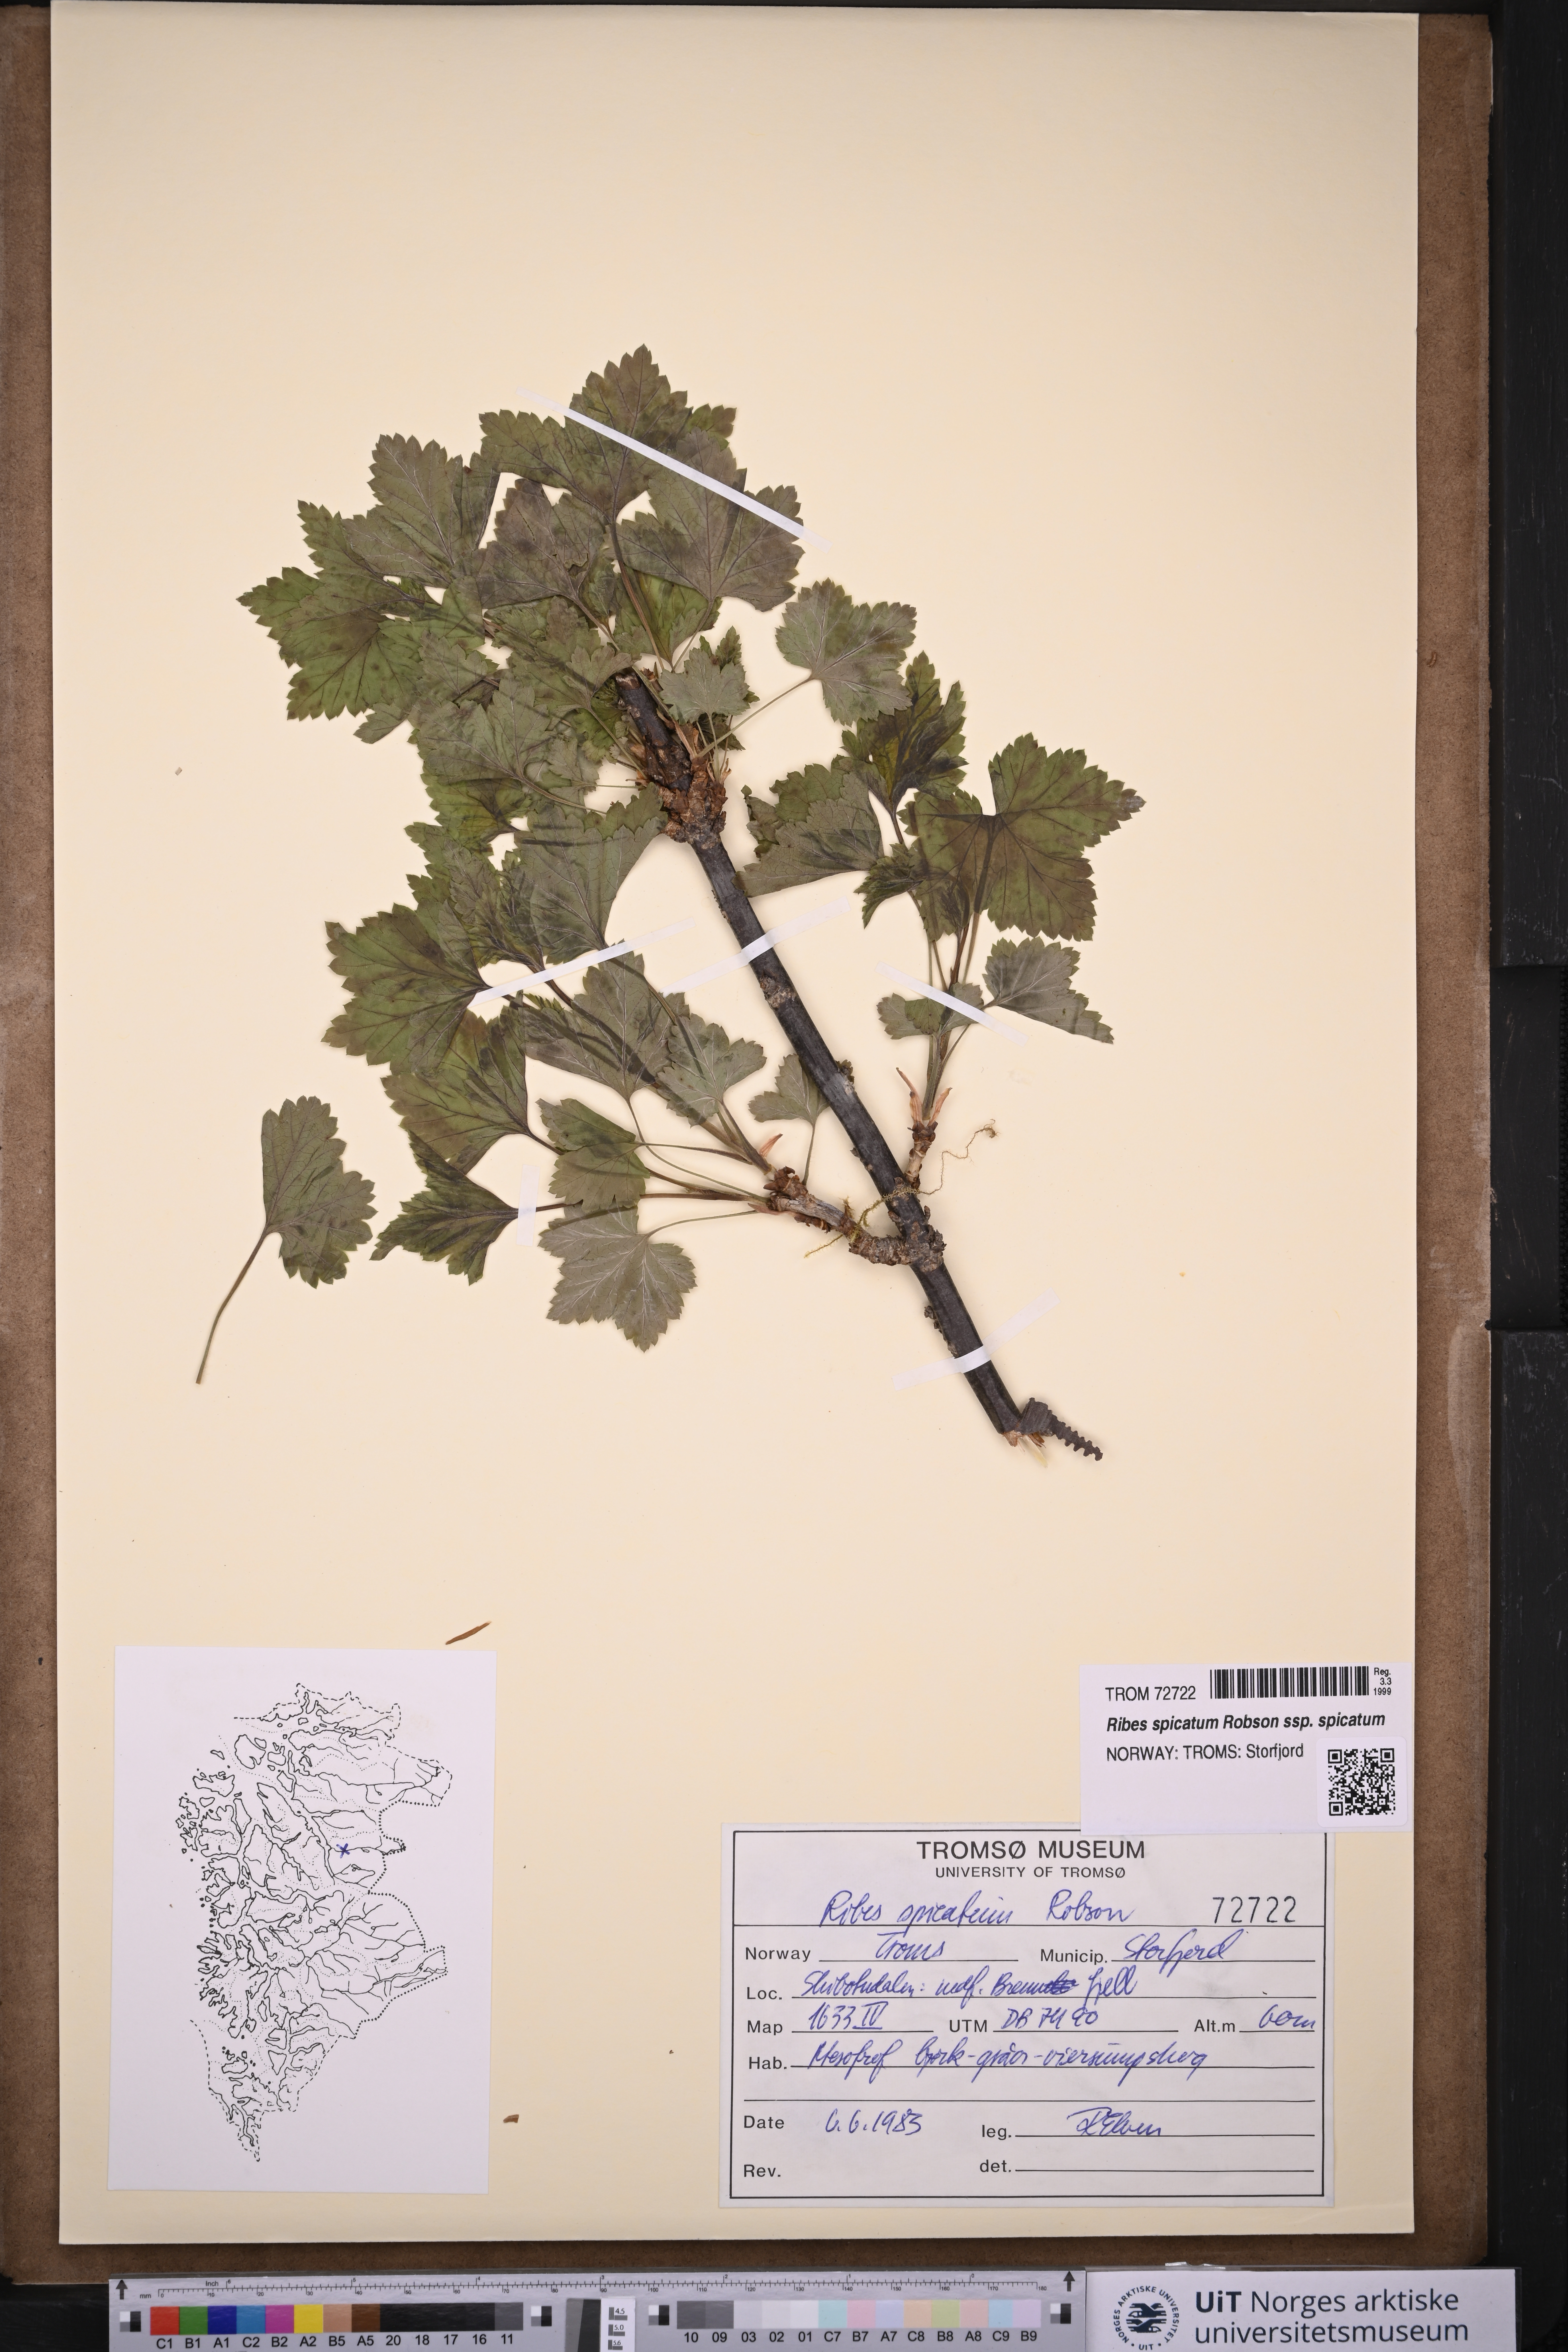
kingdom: Plantae
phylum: Tracheophyta
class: Magnoliopsida
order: Saxifragales
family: Grossulariaceae
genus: Ribes
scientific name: Ribes spicatum
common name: Downy currant
